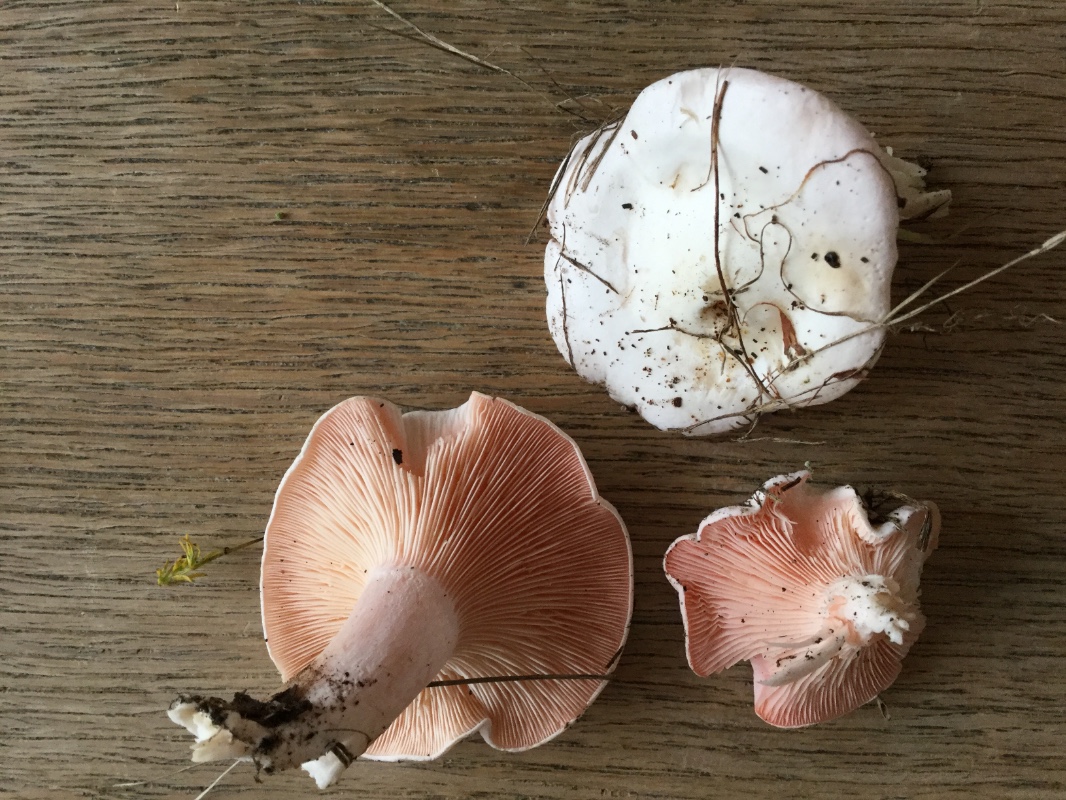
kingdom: Fungi
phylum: Basidiomycota
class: Agaricomycetes
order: Agaricales
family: Tricholomataceae
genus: Pseudoclitopilus
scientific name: Pseudoclitopilus rhodoleucus
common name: rosabladet tragtridderhat
